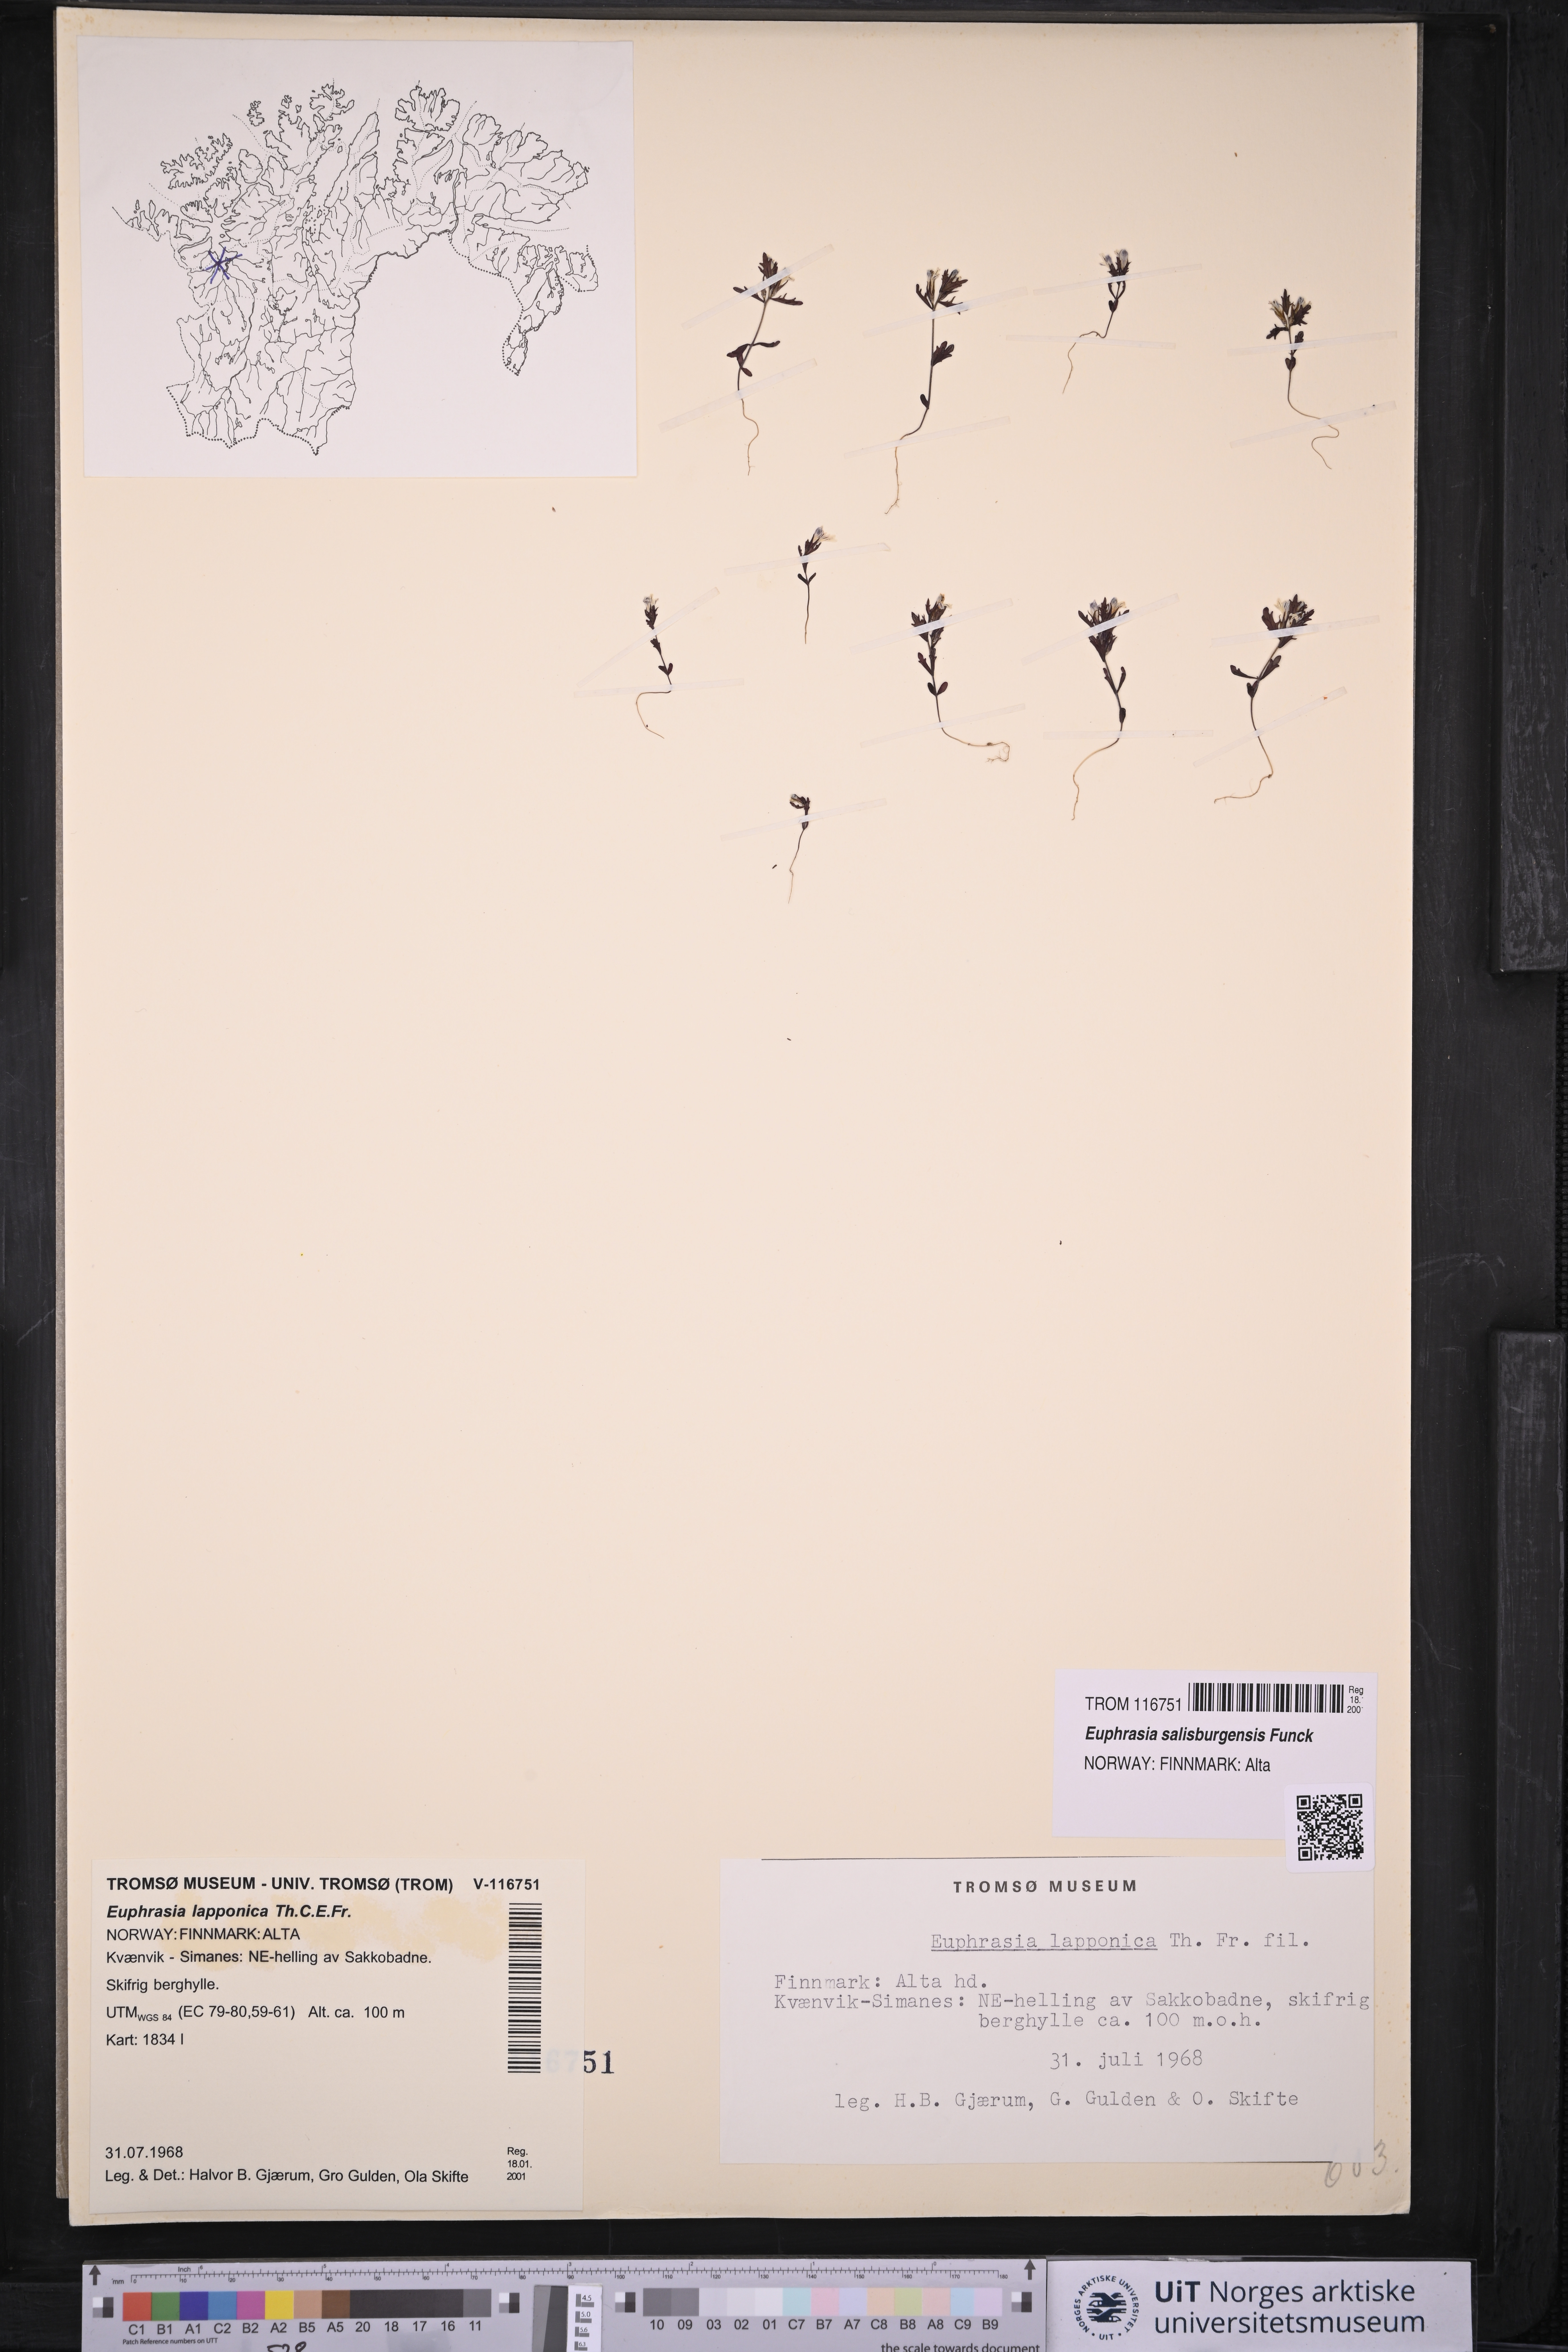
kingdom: Plantae
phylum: Tracheophyta
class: Magnoliopsida
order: Lamiales
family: Orobanchaceae
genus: Euphrasia
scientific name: Euphrasia salisburgensis
